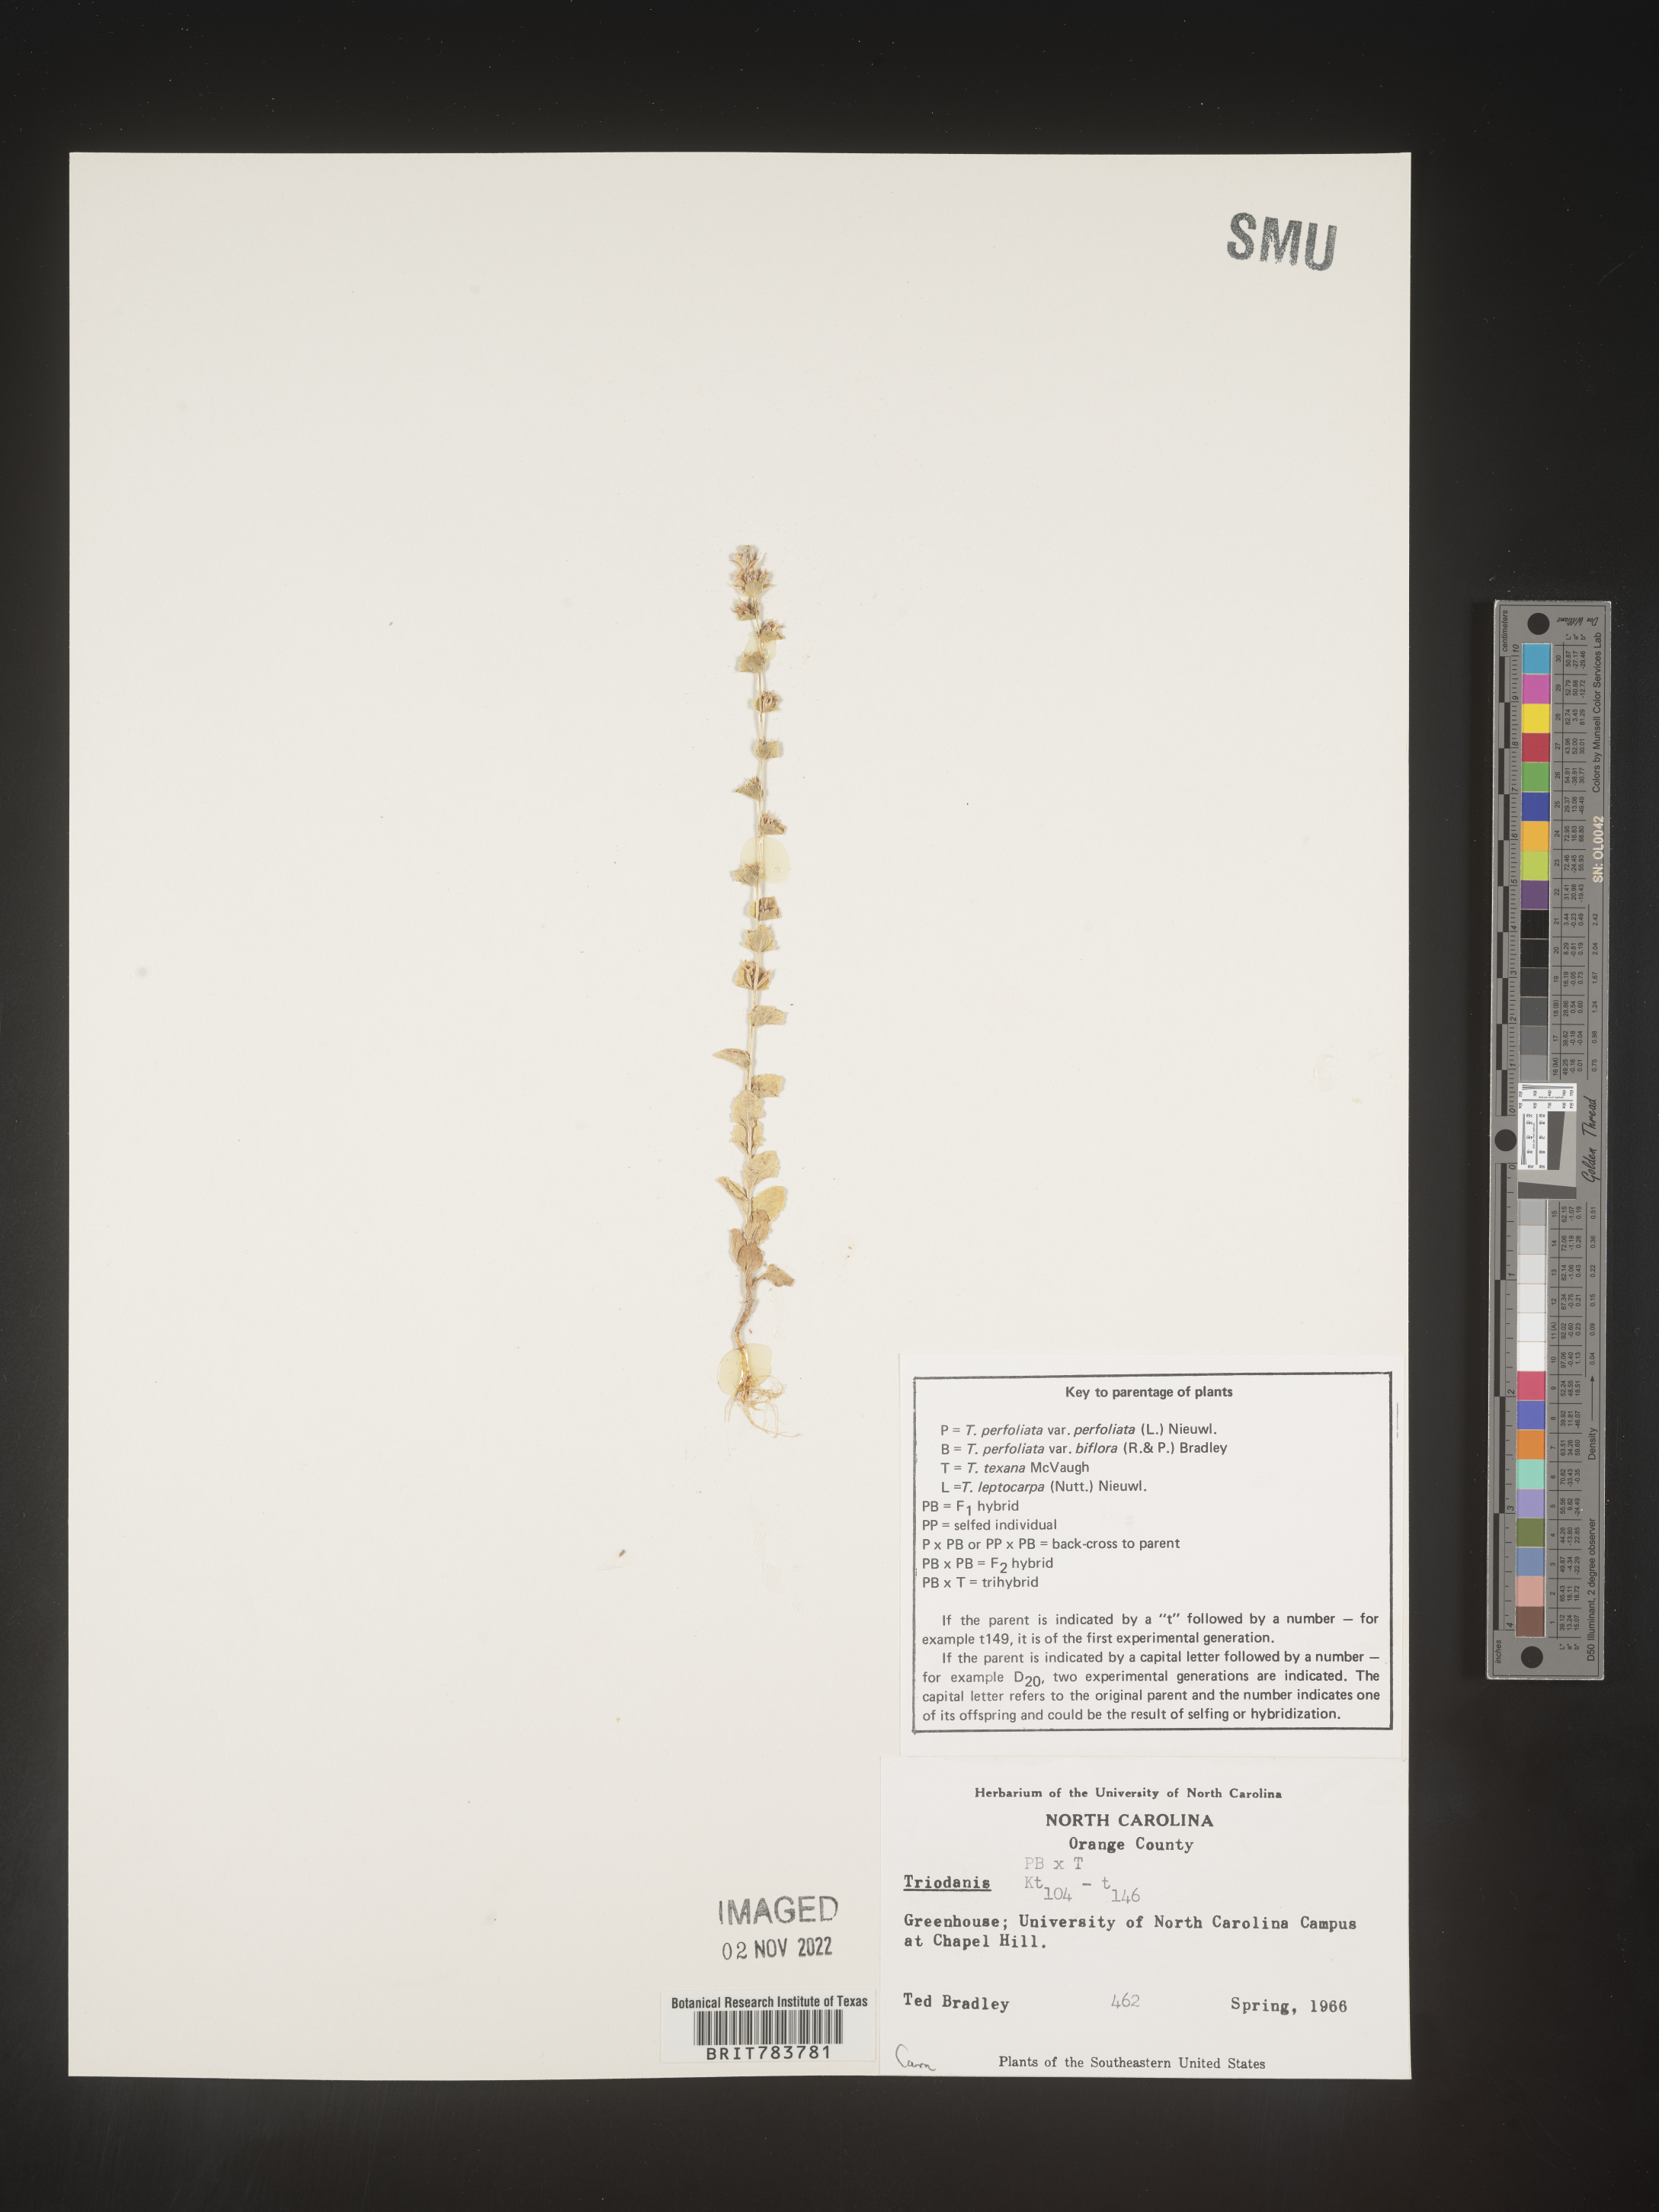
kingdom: Plantae
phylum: Tracheophyta
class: Magnoliopsida
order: Asterales
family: Campanulaceae
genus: Triodanis
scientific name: Triodanis
